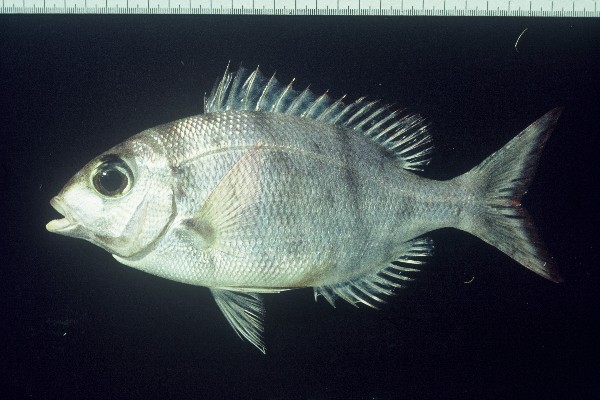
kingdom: Animalia
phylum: Chordata
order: Perciformes
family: Lethrinidae
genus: Gymnocranius
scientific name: Gymnocranius griseus
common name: Grey emperor
